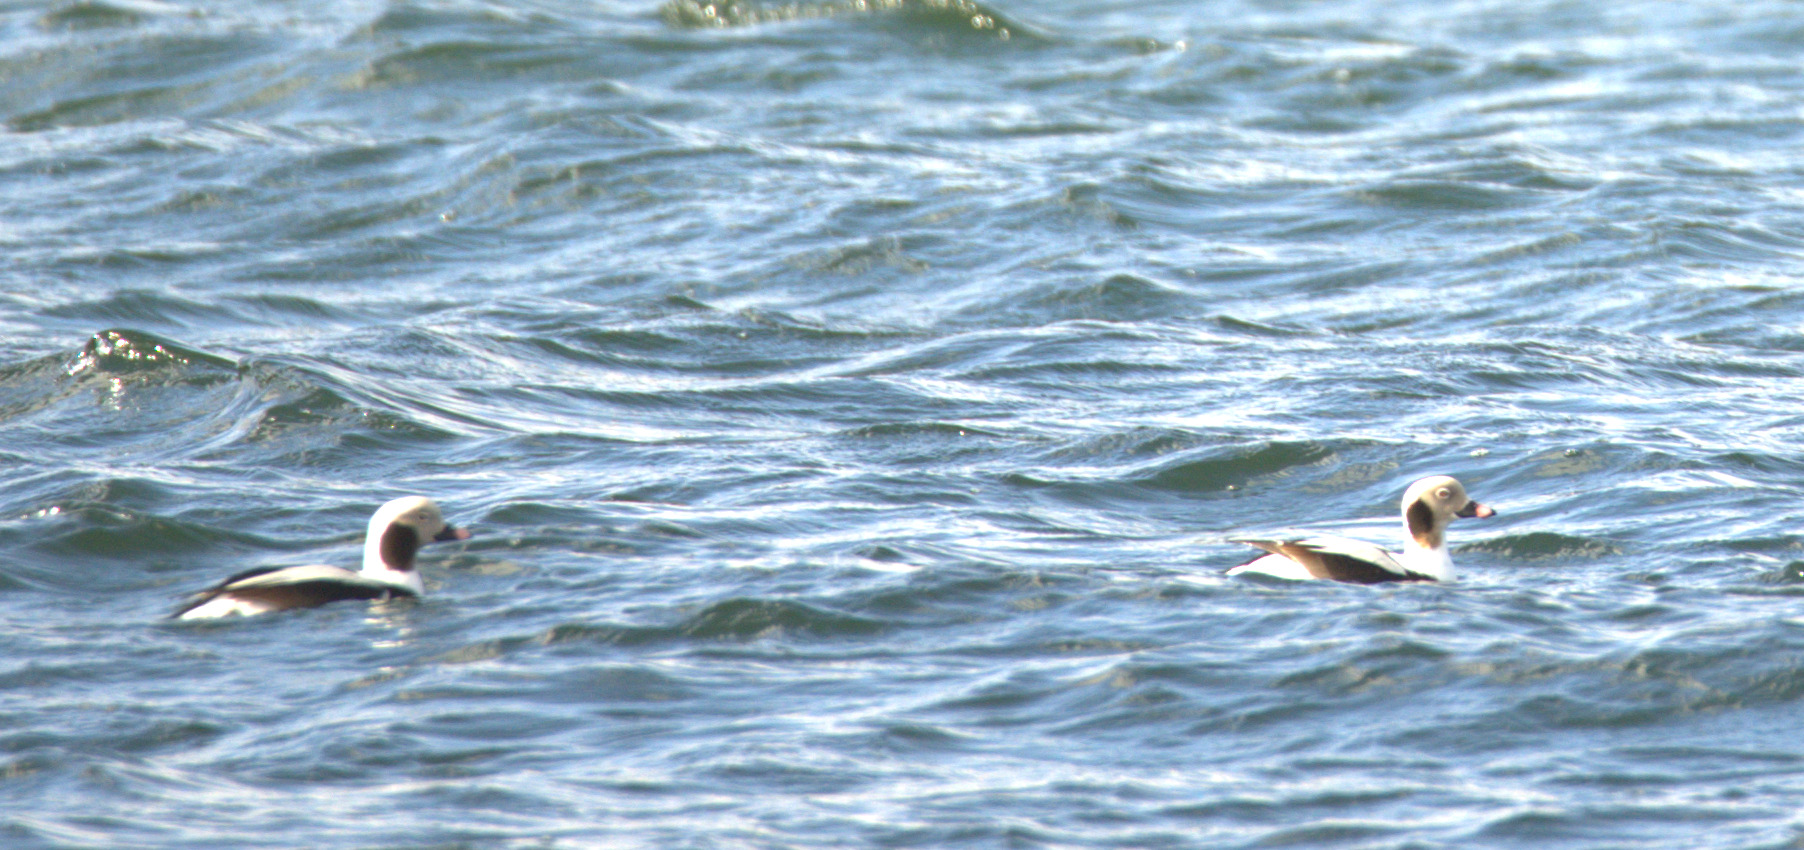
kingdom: Animalia
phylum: Chordata
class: Aves
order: Anseriformes
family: Anatidae
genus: Clangula
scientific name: Clangula hyemalis
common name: Havlit
